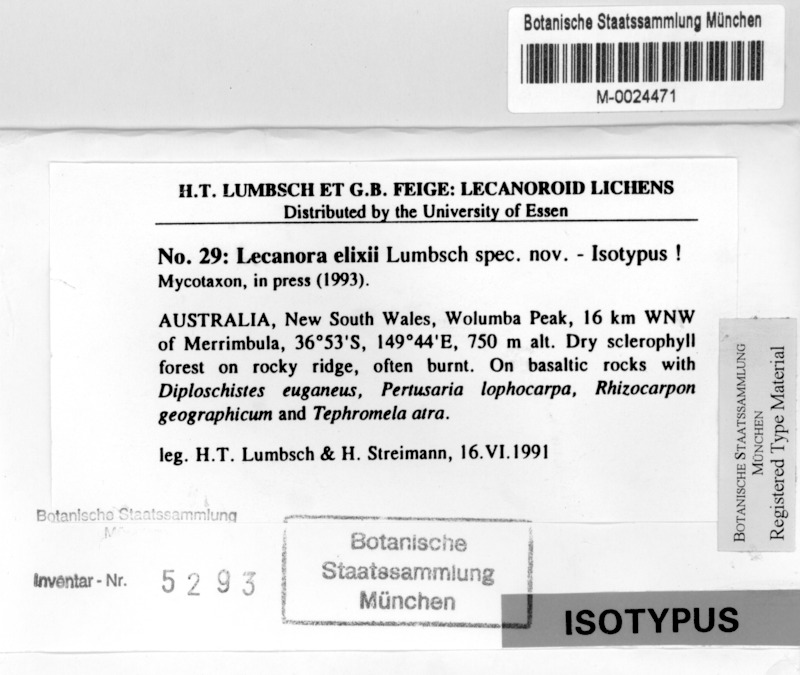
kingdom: Fungi
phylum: Ascomycota
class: Lecanoromycetes
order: Lecanorales
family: Lecanoraceae
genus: Lecanora
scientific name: Lecanora elixii
